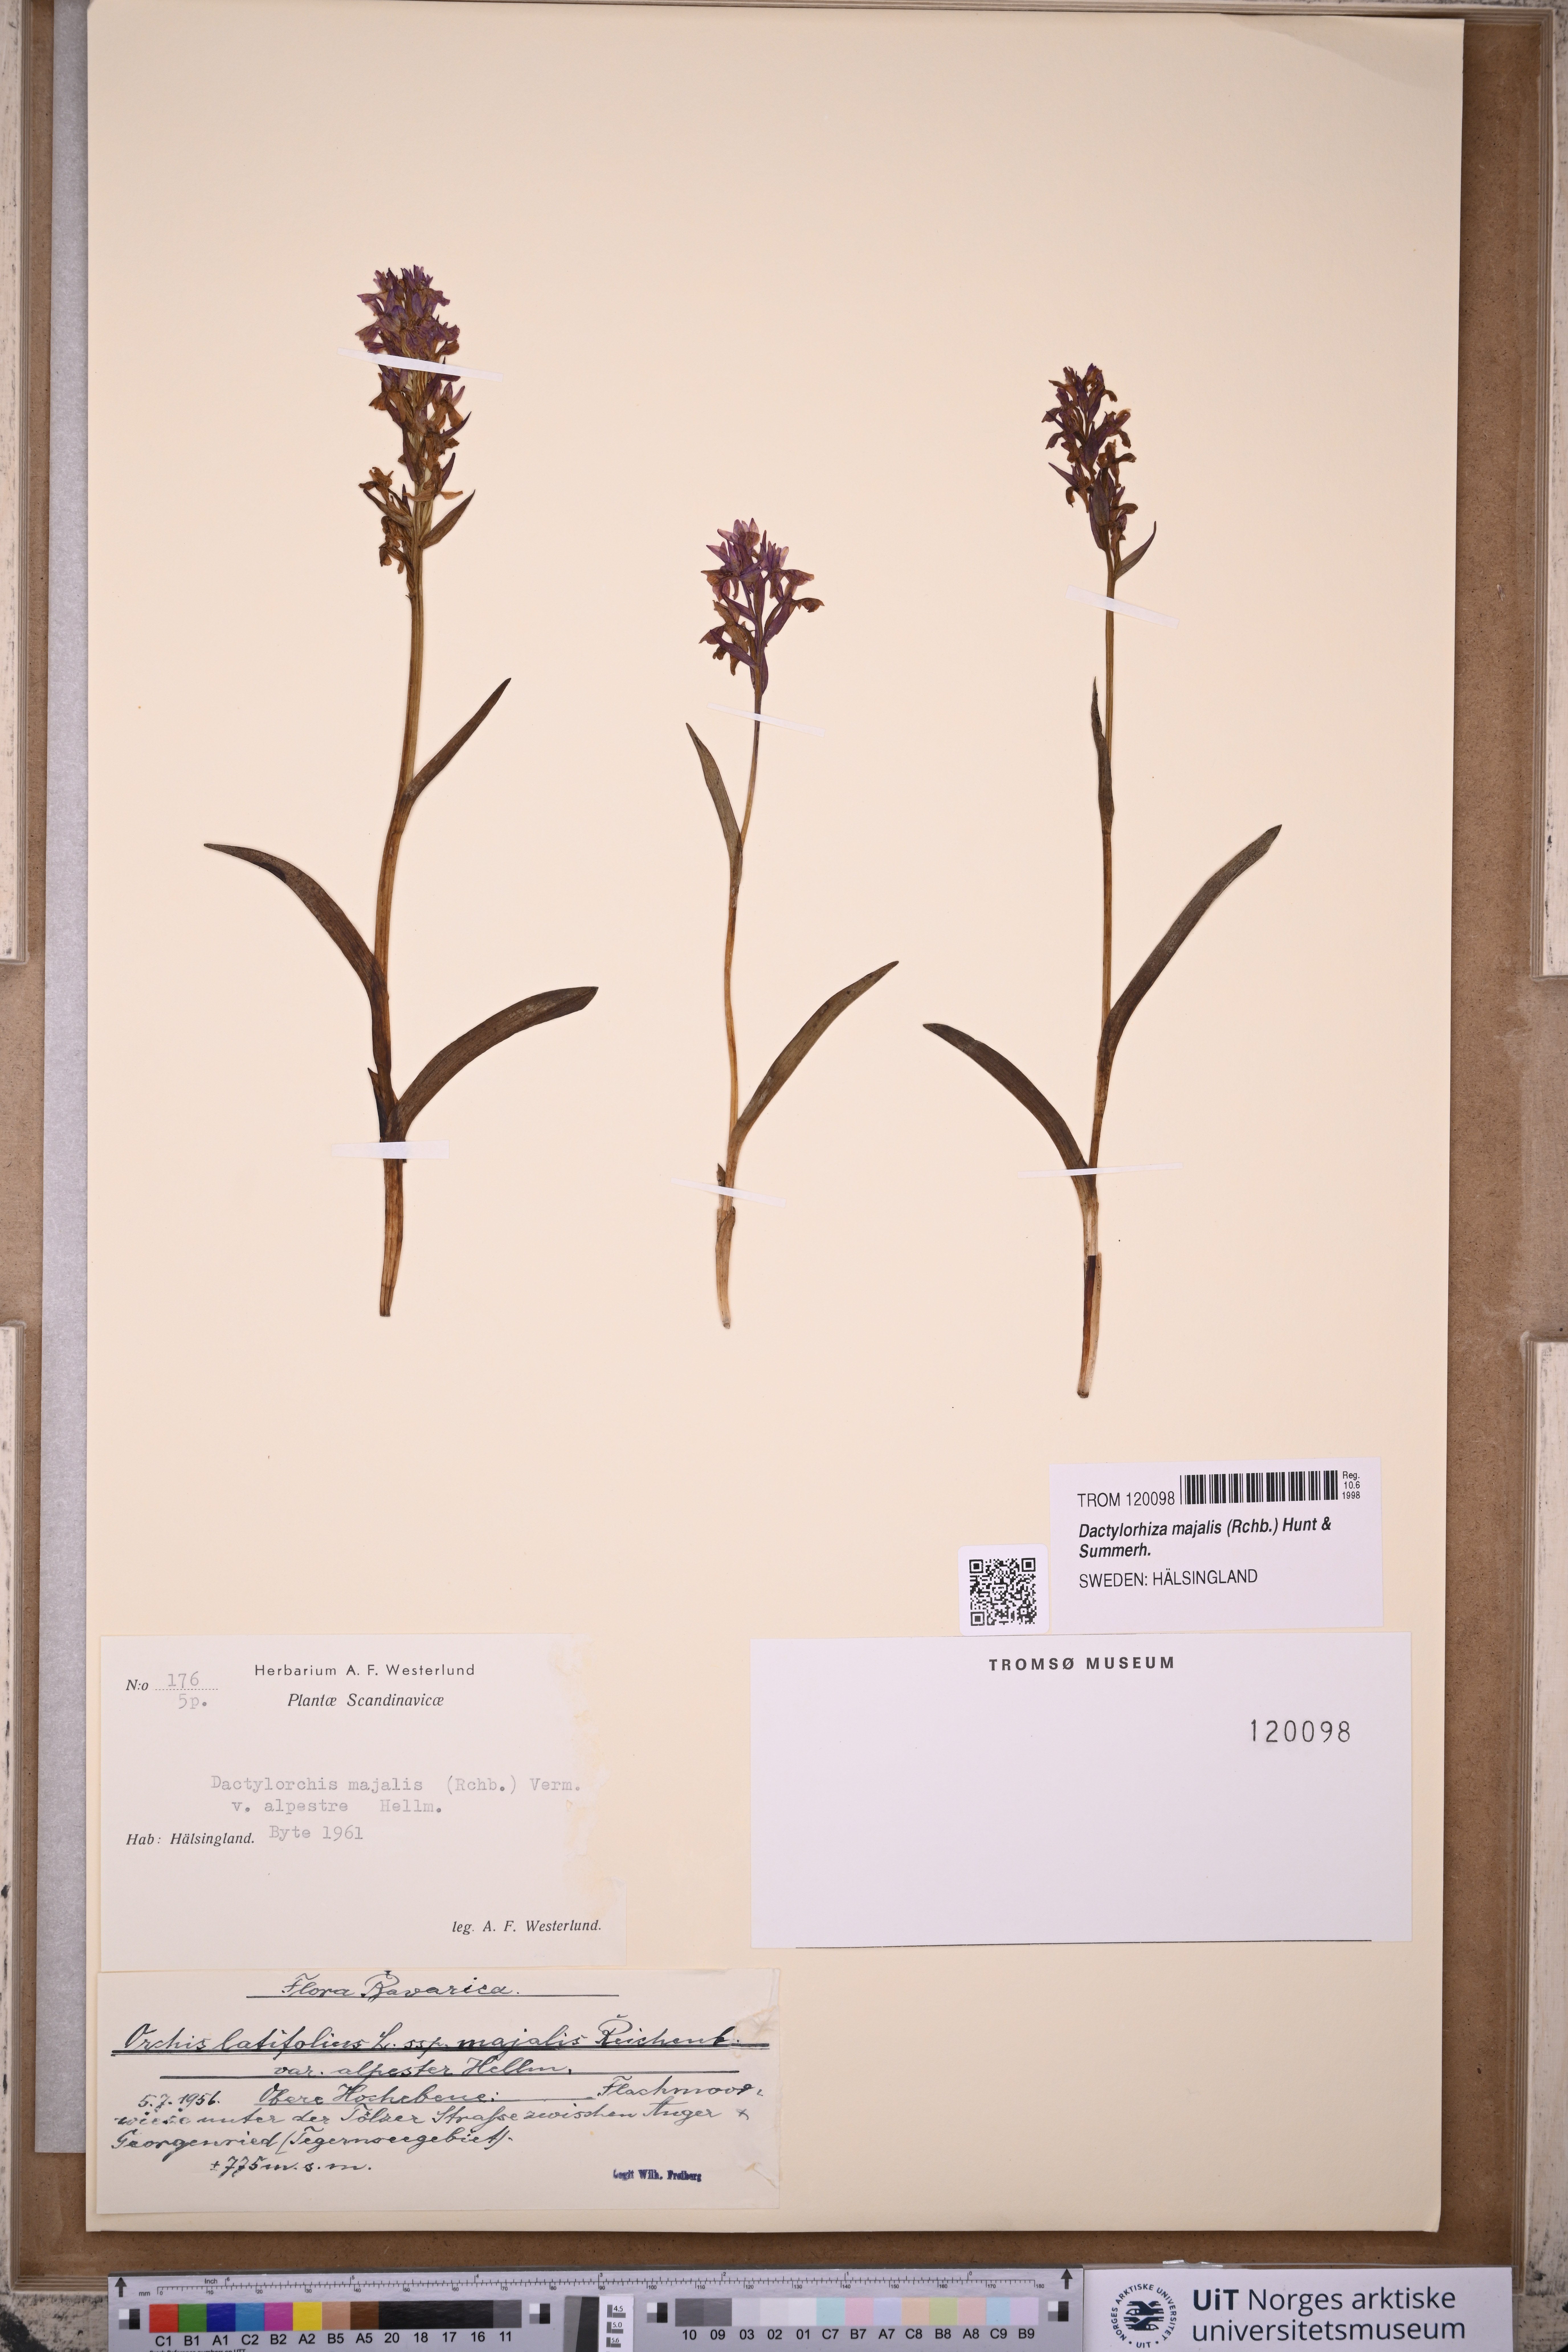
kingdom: Plantae
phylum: Tracheophyta
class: Liliopsida
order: Asparagales
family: Orchidaceae
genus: Dactylorhiza
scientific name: Dactylorhiza majalis
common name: Marsh orchid
